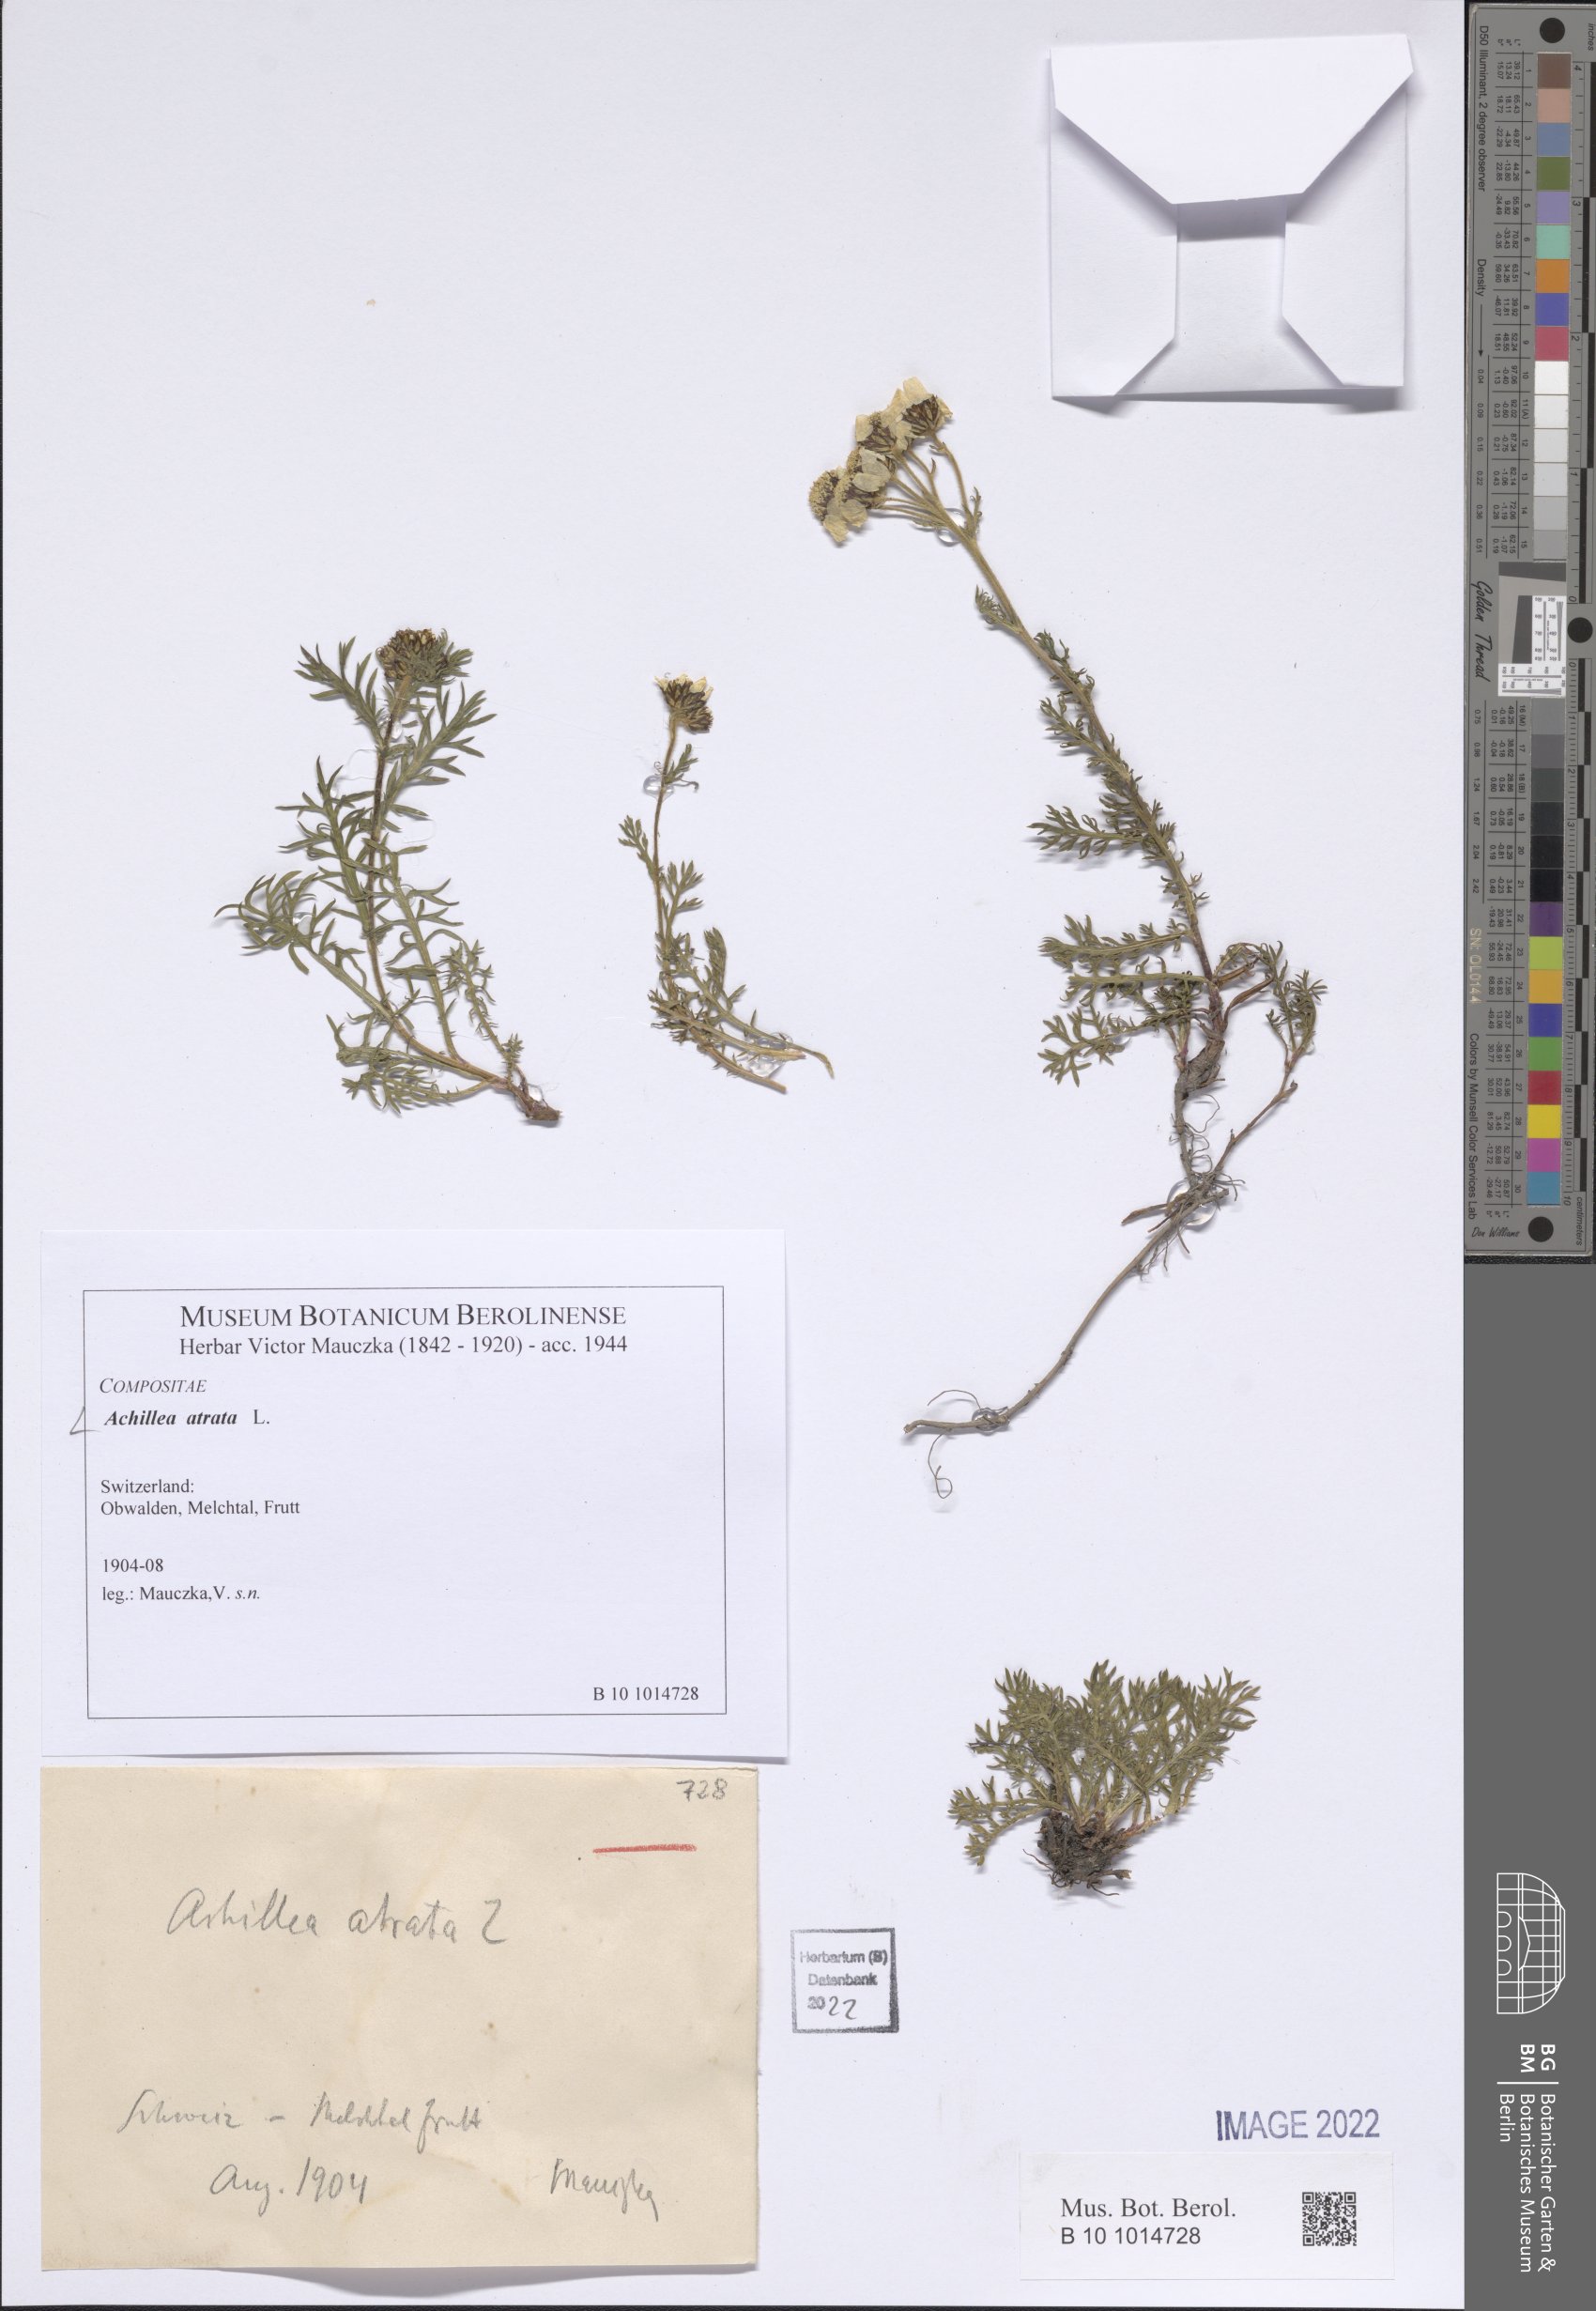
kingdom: Plantae
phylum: Tracheophyta
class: Magnoliopsida
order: Asterales
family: Asteraceae
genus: Achillea
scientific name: Achillea atrata
